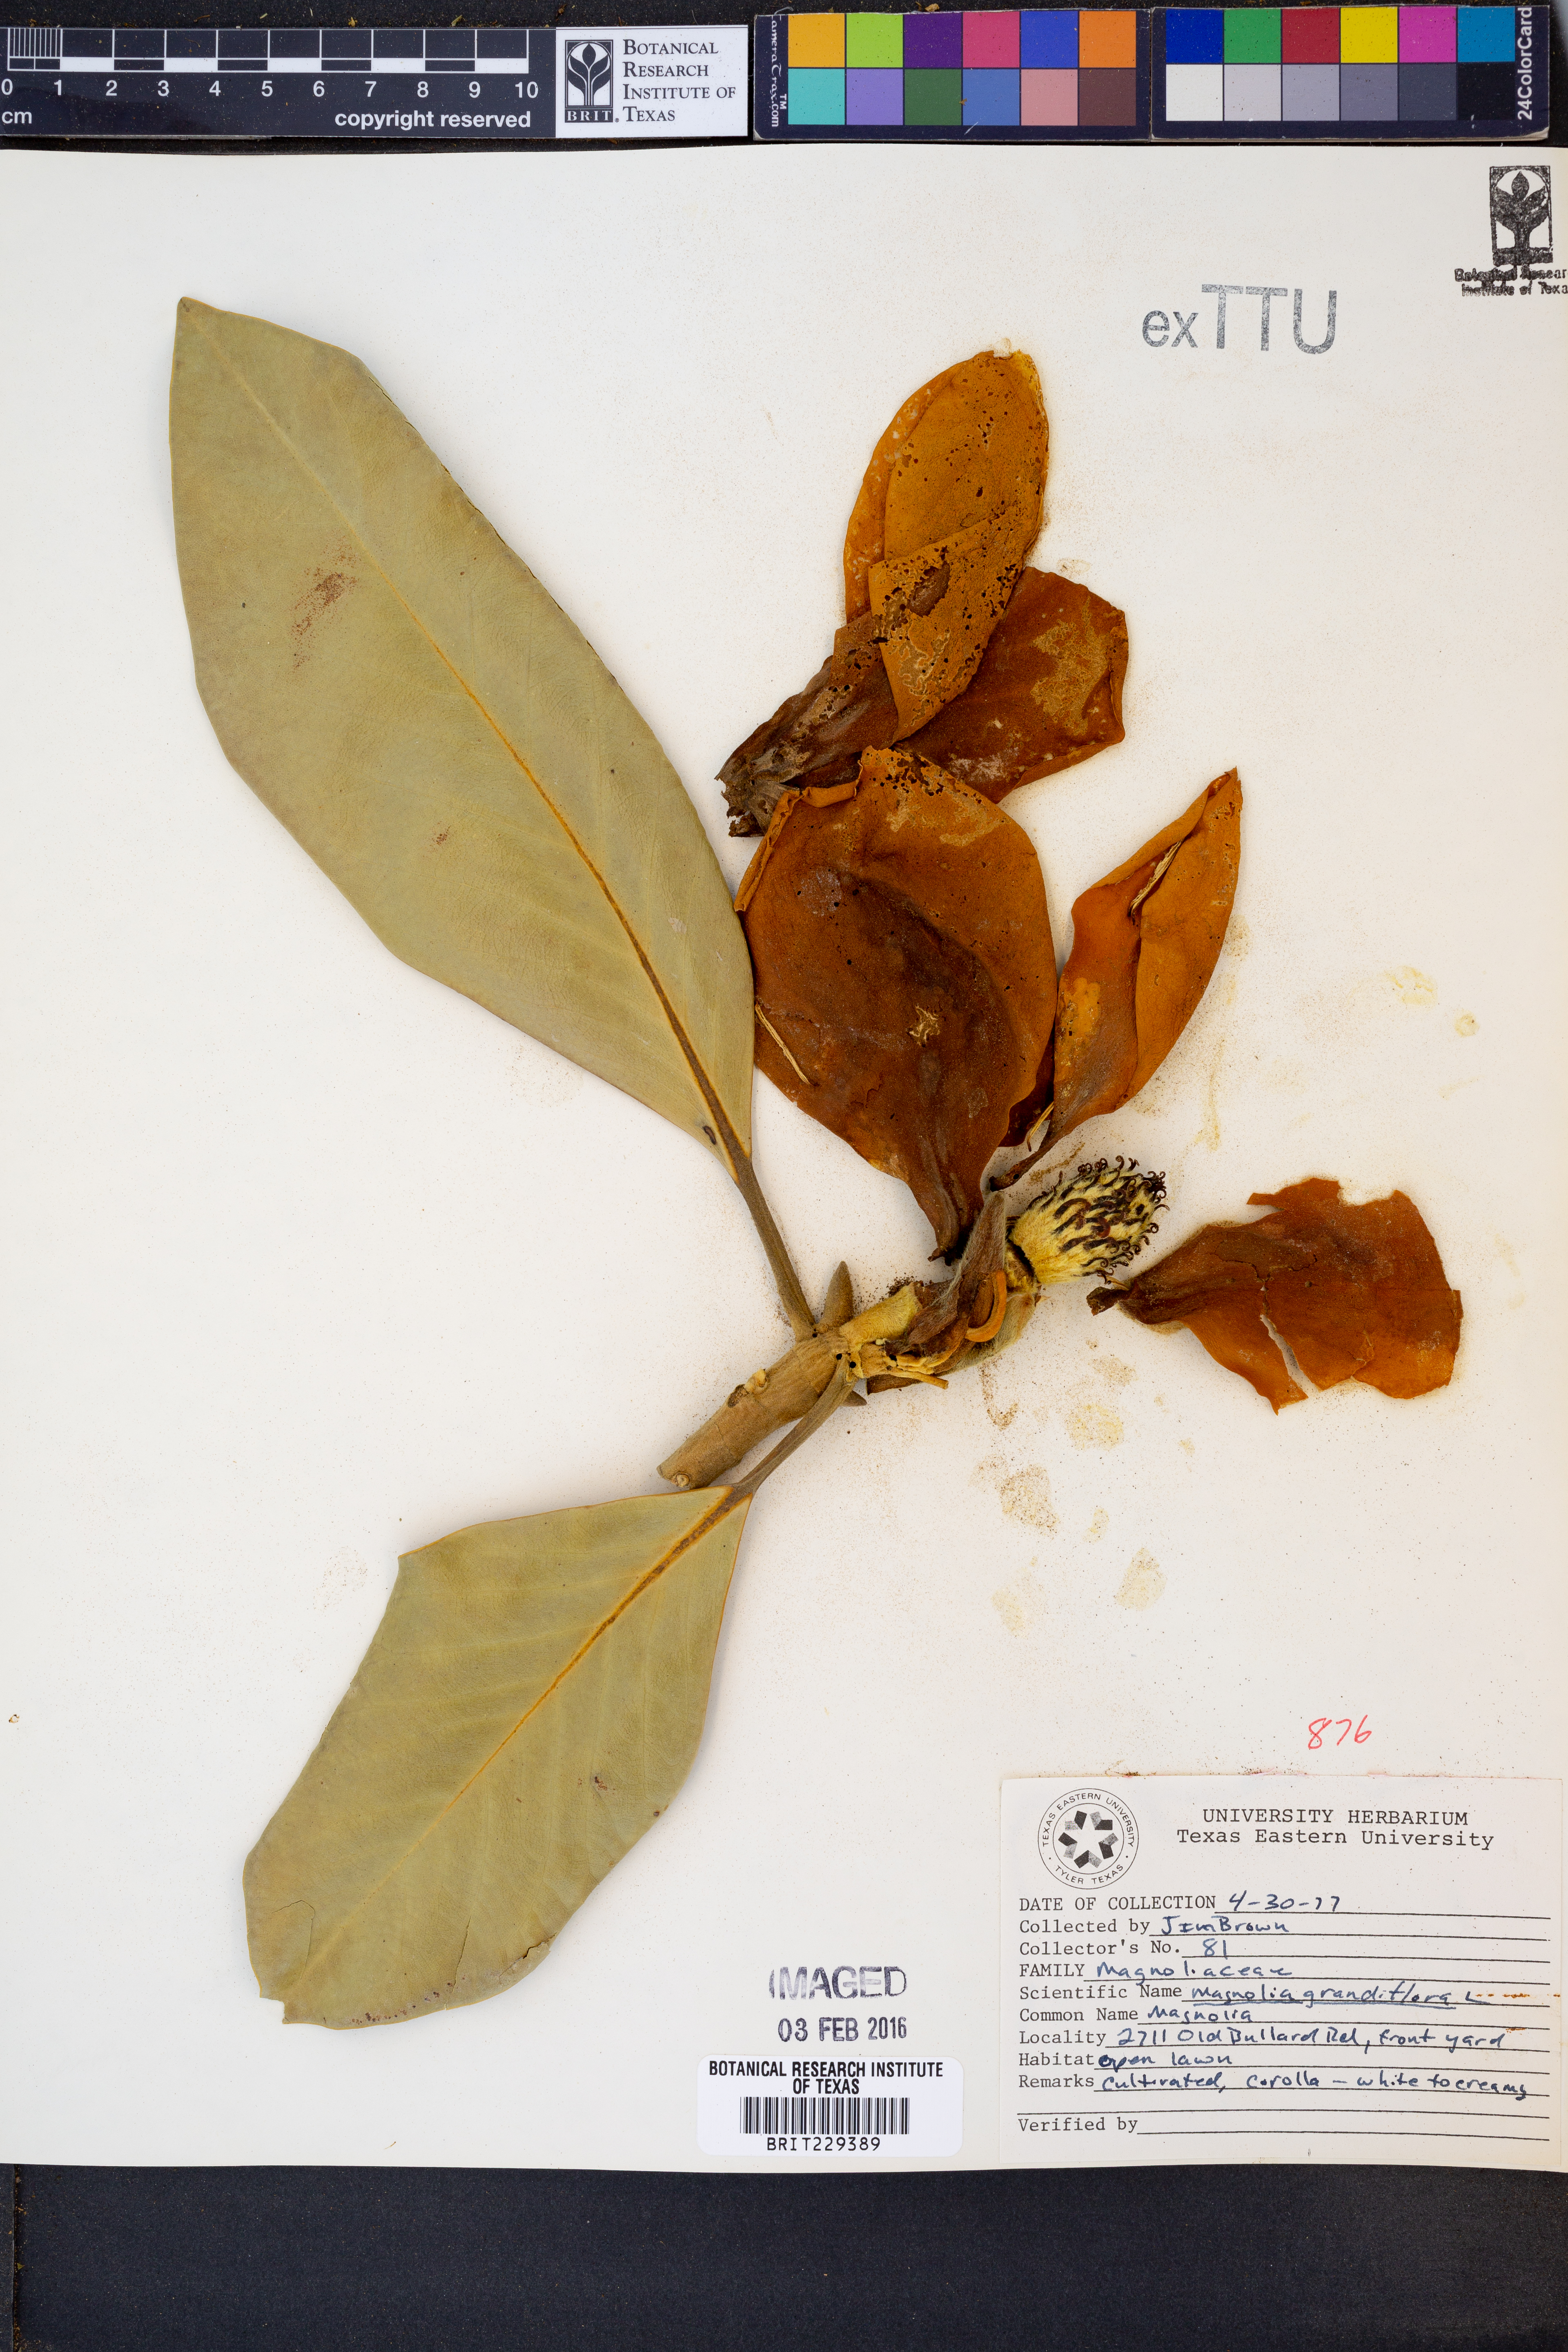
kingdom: Plantae
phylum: Tracheophyta
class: Magnoliopsida
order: Magnoliales
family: Magnoliaceae
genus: Magnolia
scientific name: Magnolia grandiflora
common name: Southern magnolia
